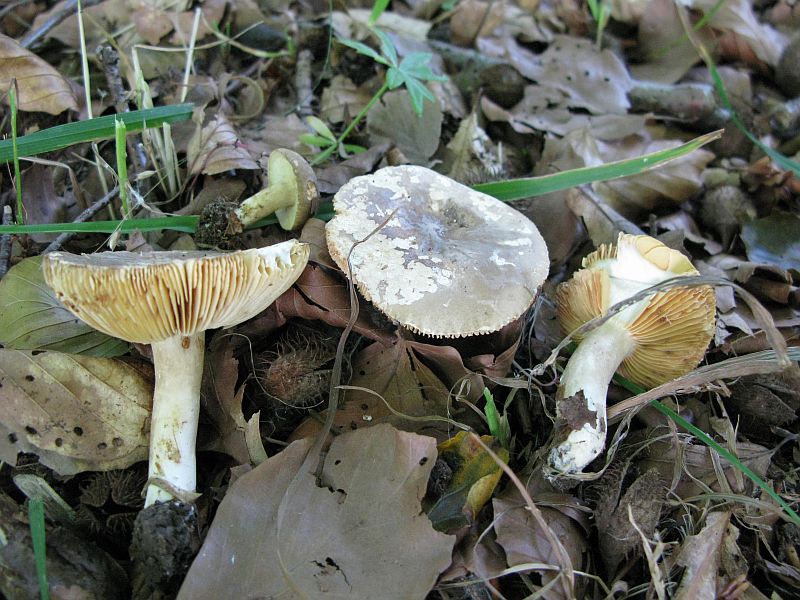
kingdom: Fungi
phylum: Basidiomycota
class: Agaricomycetes
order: Russulales
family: Russulaceae
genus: Lactarius
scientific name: Lactarius acris
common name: rosamælket mælkehat
